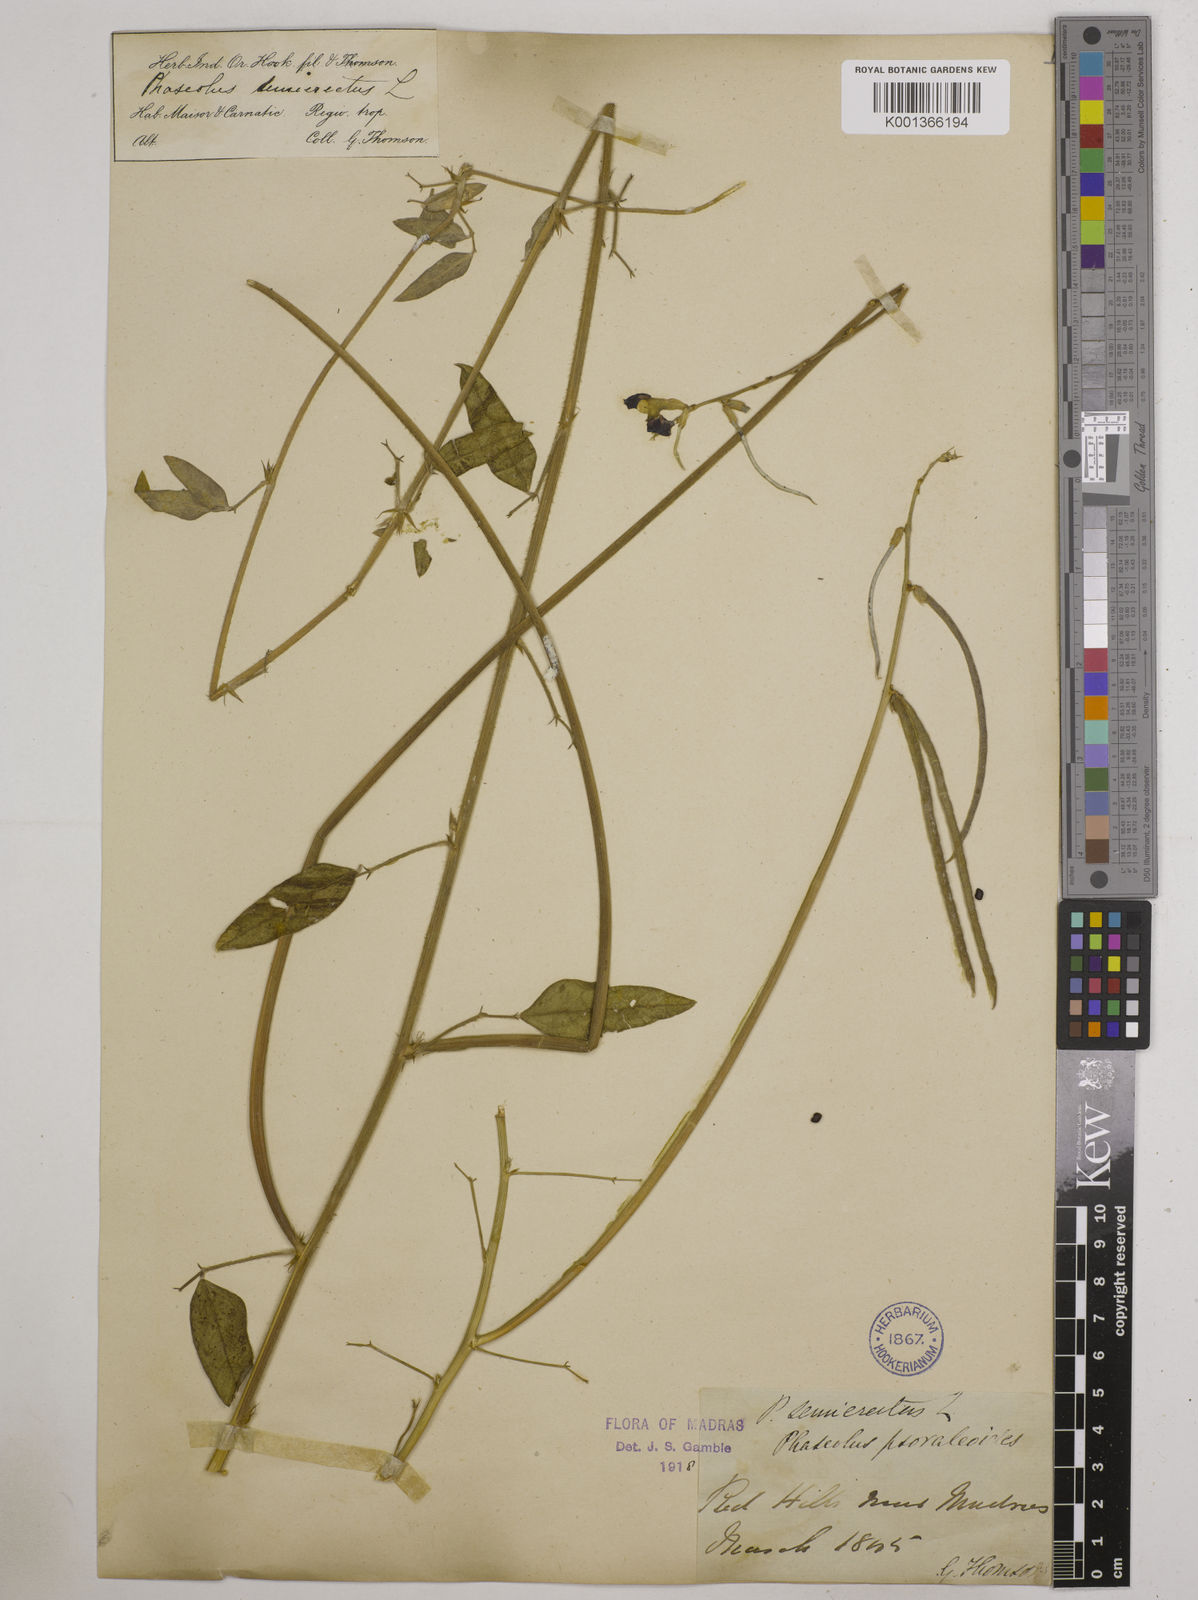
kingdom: Plantae
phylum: Tracheophyta
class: Magnoliopsida
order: Fabales
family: Fabaceae
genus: Macroptilium
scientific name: Macroptilium lathyroides
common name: Wild bushbean
